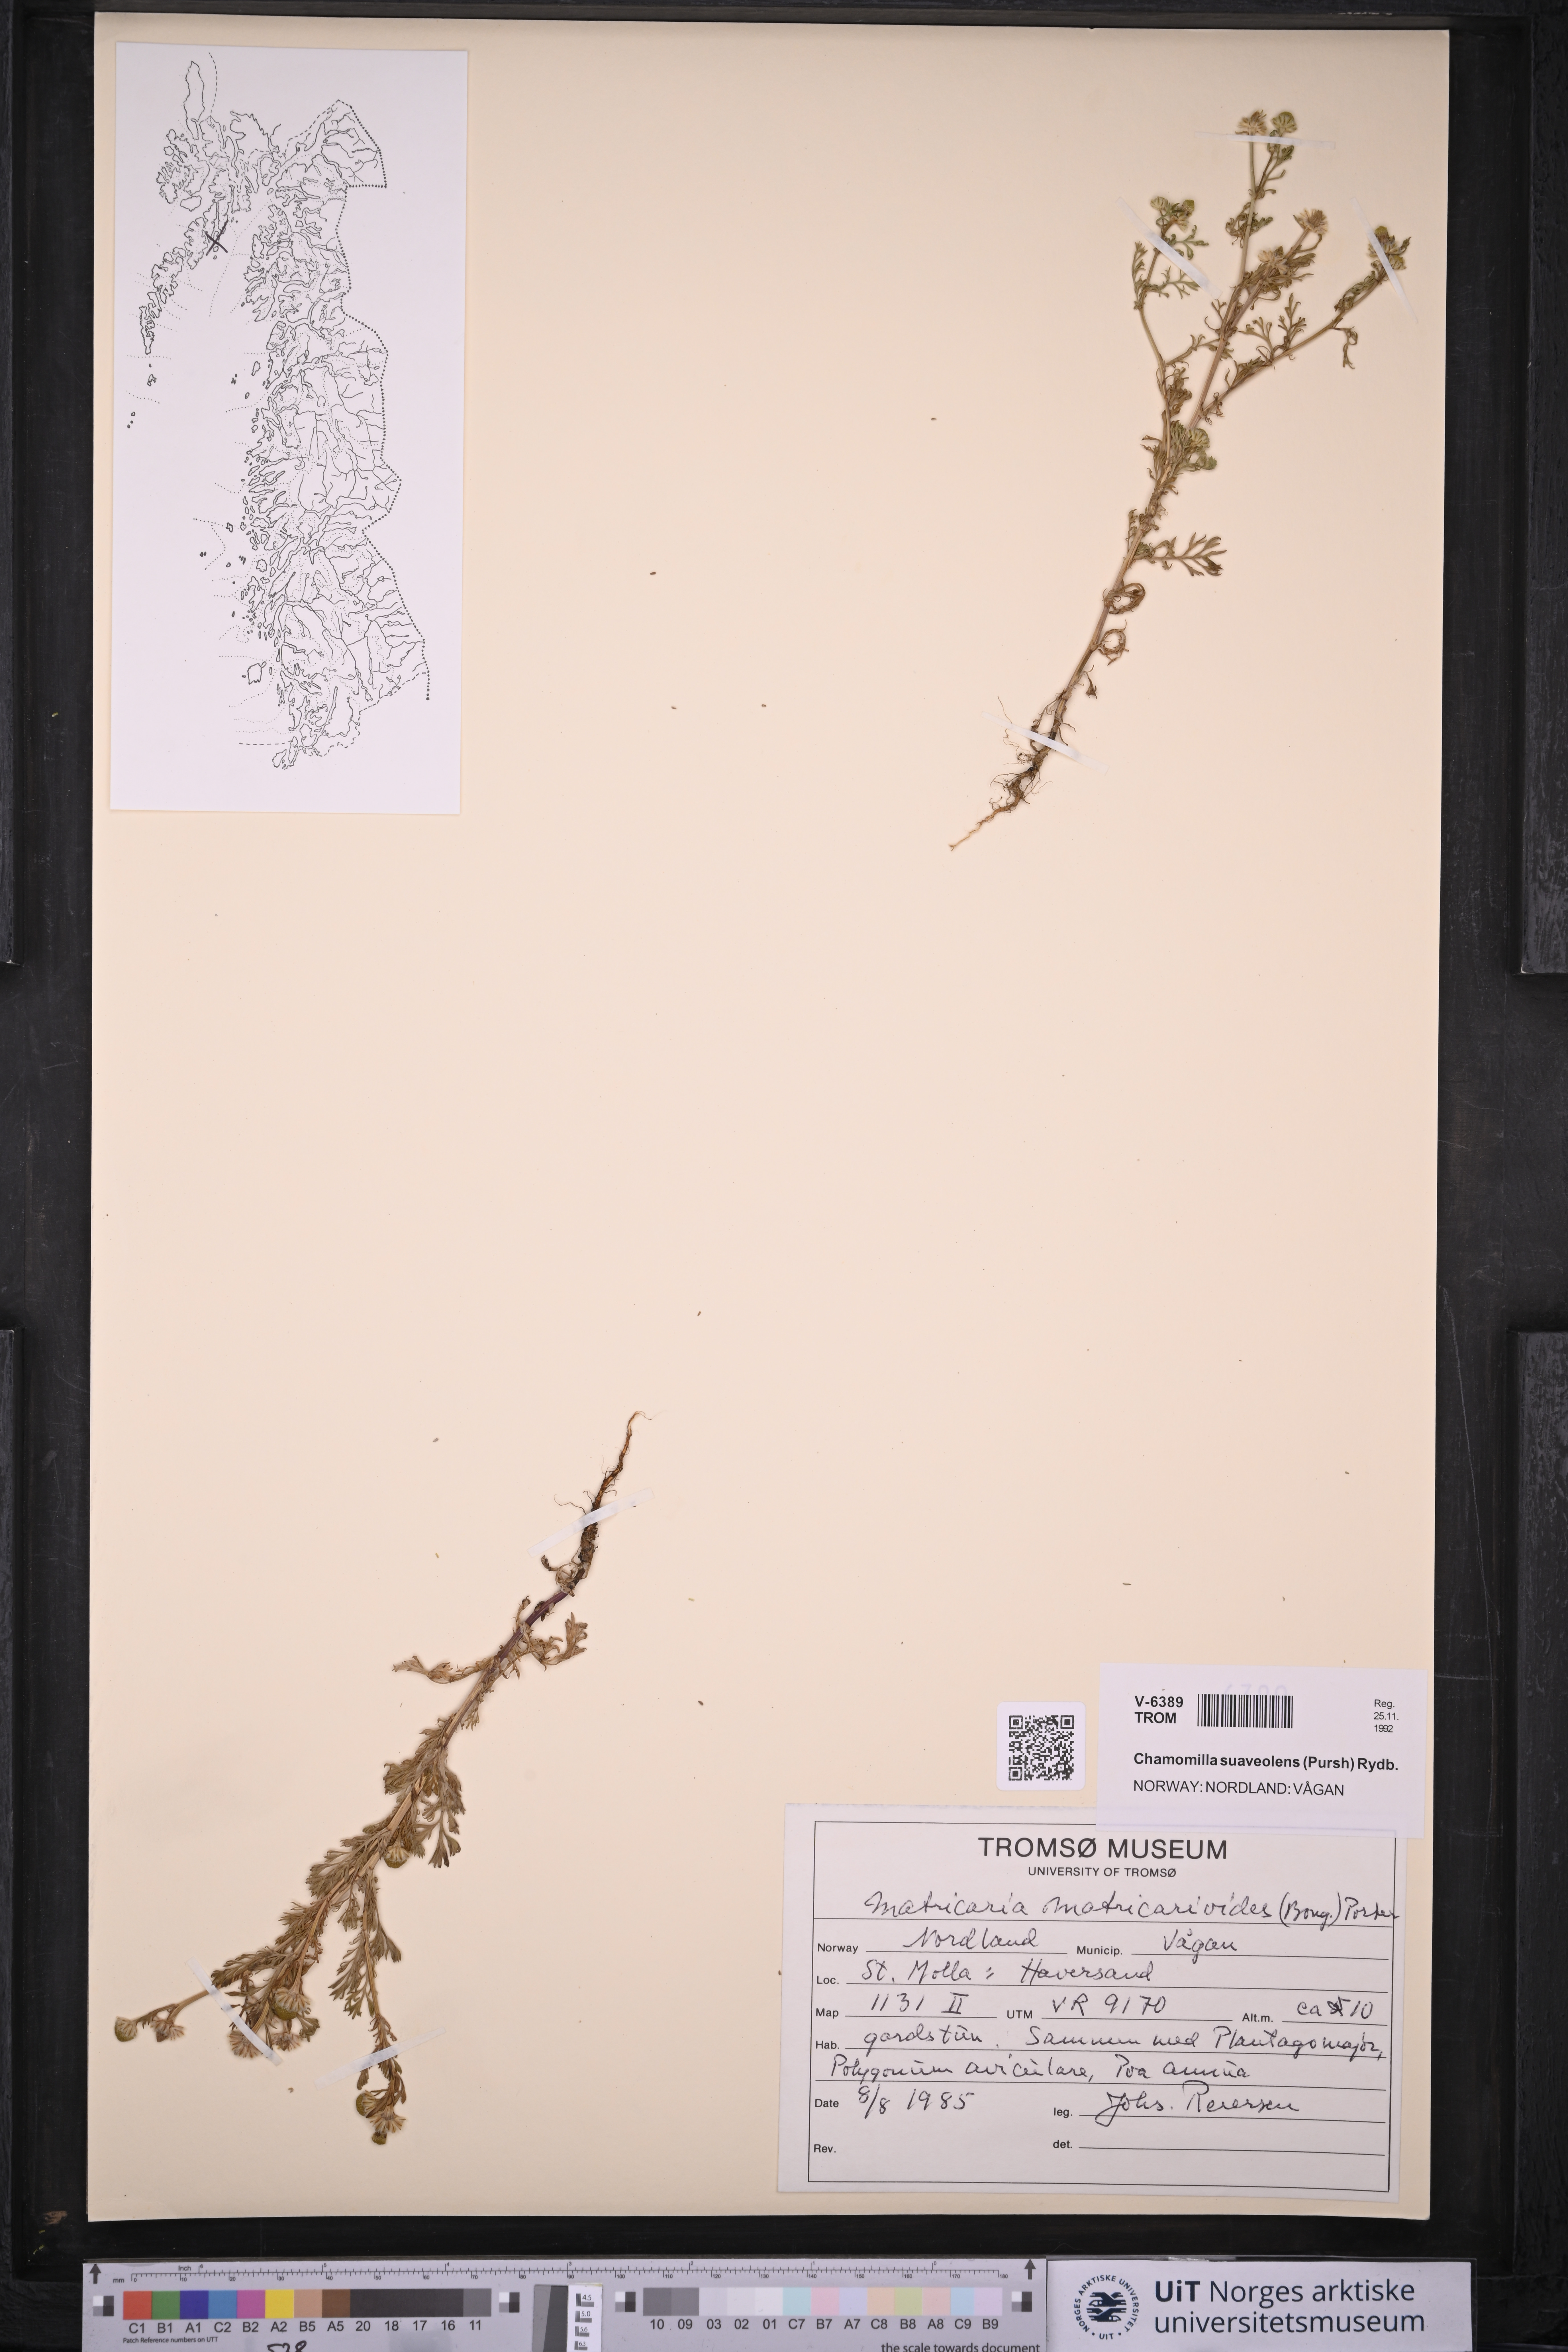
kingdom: Plantae
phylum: Tracheophyta
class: Magnoliopsida
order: Asterales
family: Asteraceae
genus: Matricaria
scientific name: Matricaria discoidea
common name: Disc mayweed
